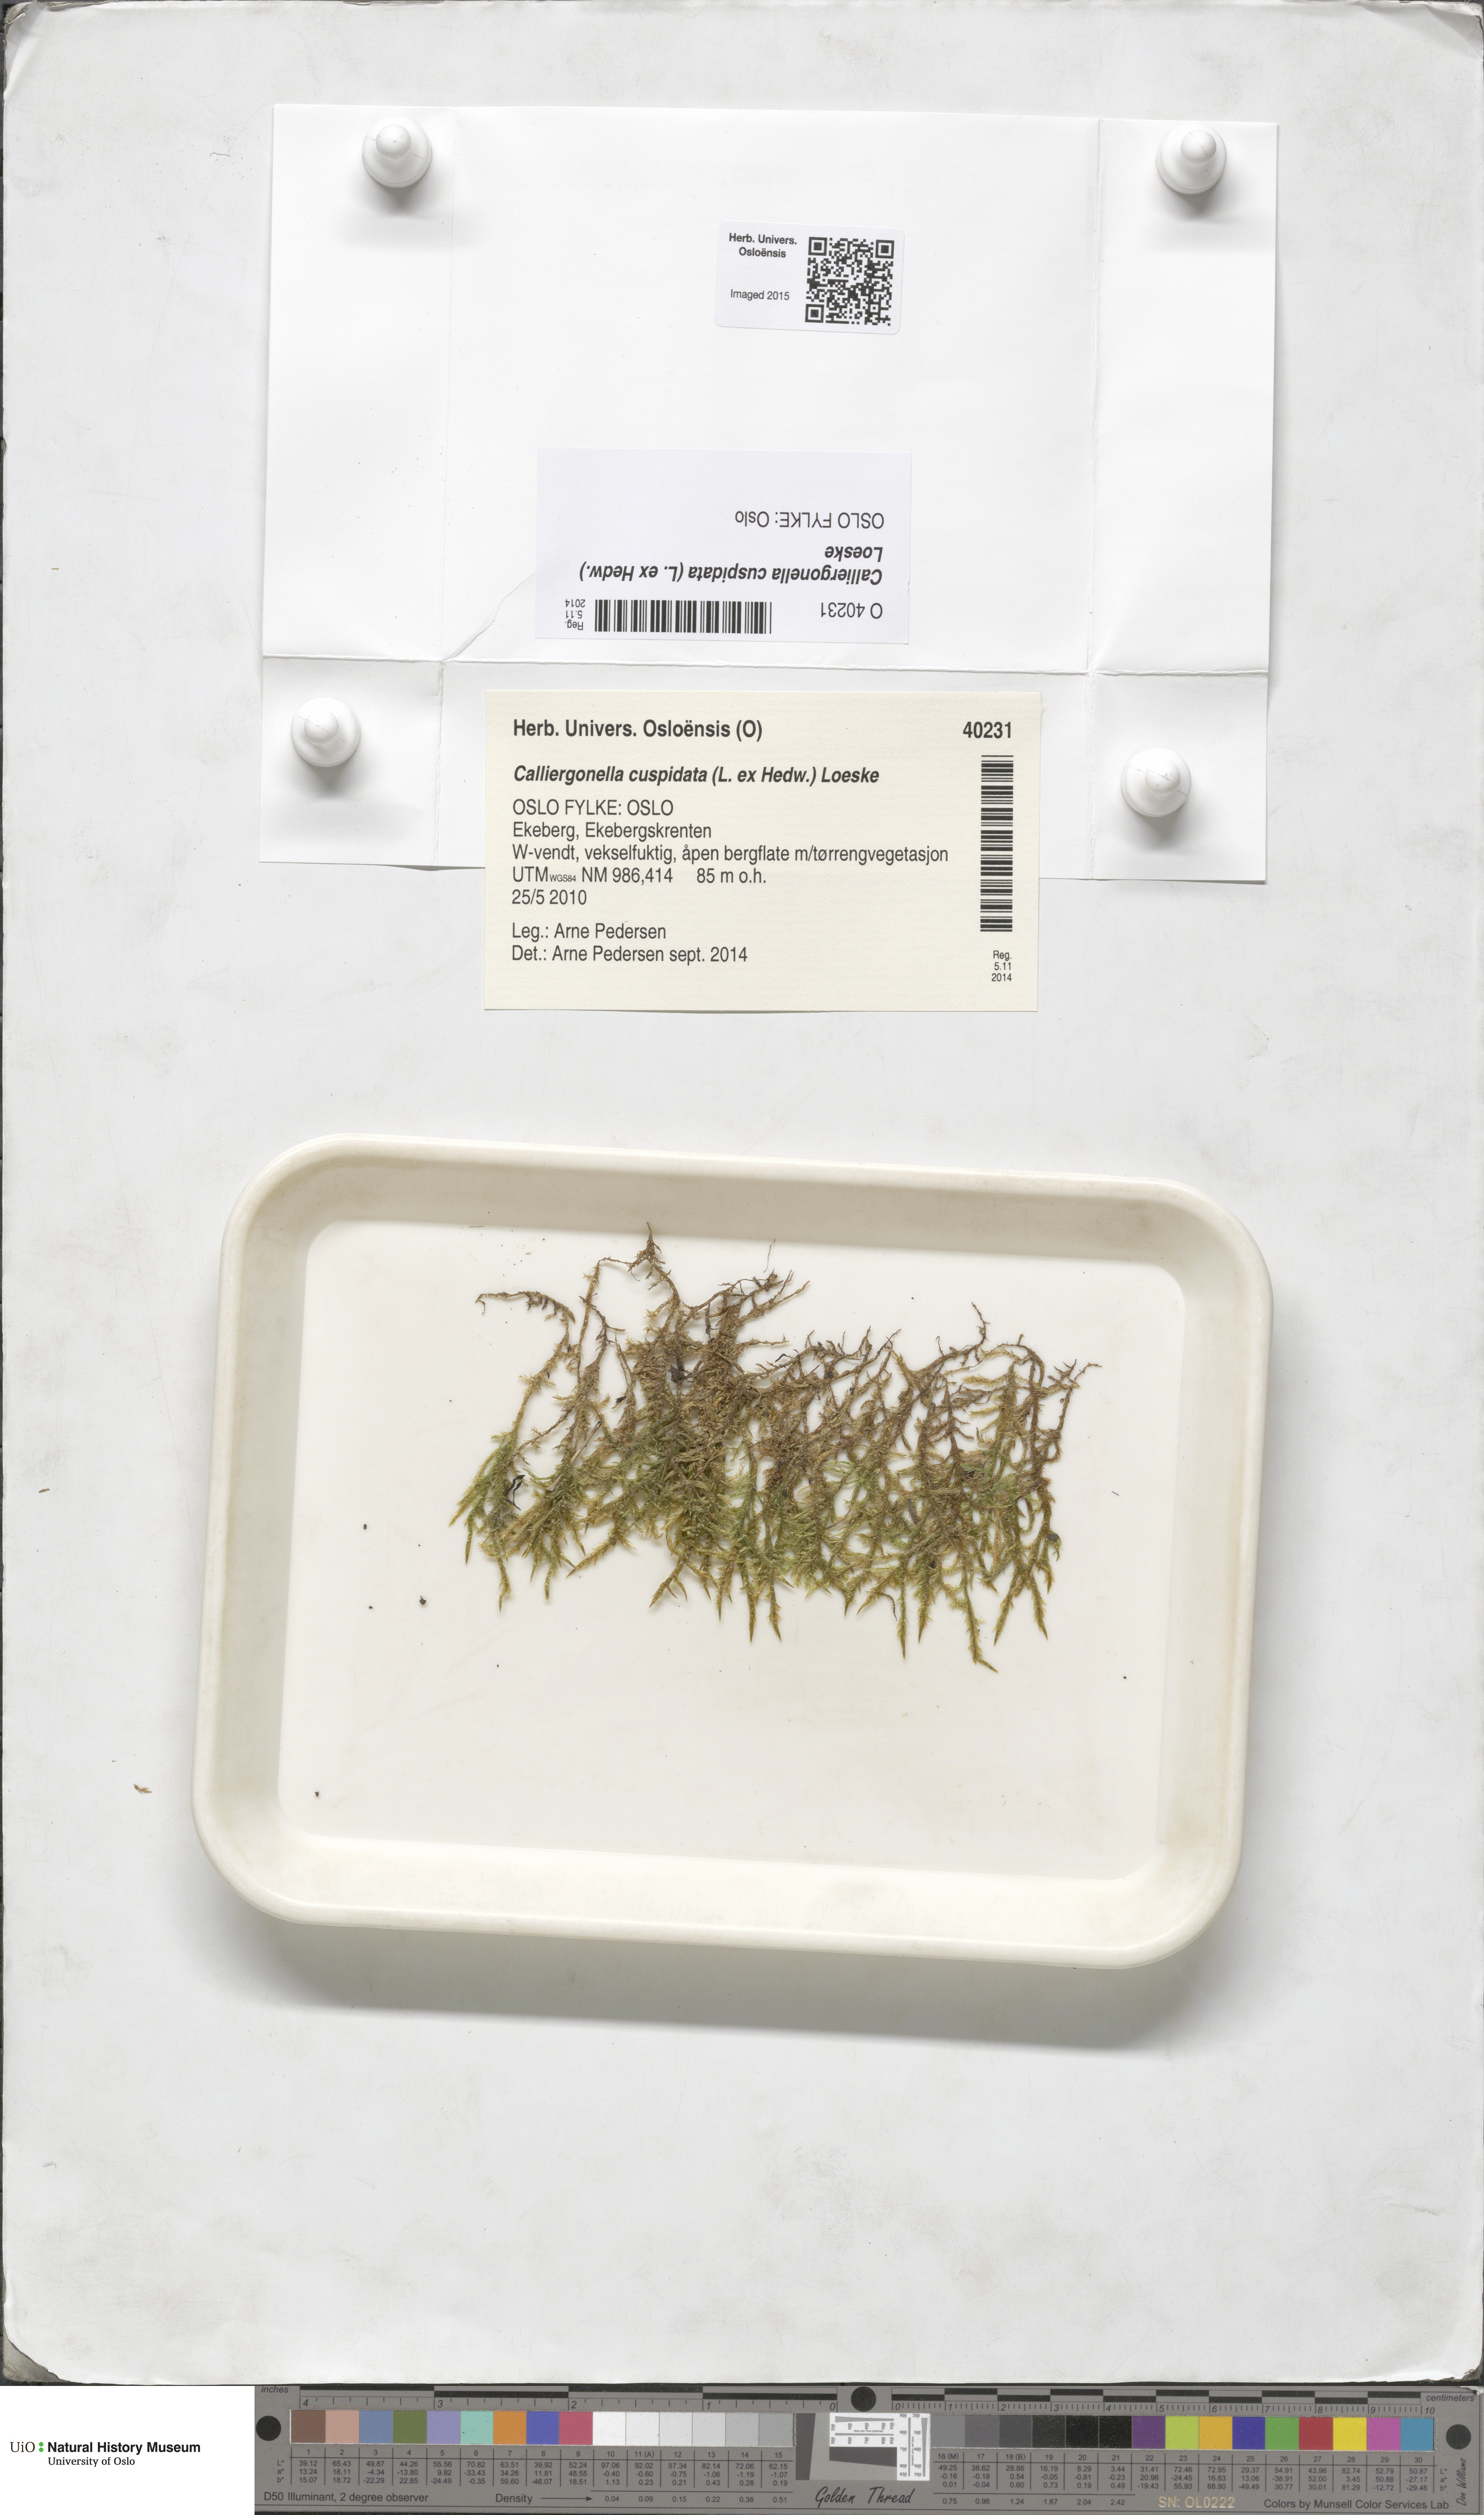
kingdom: Plantae
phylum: Bryophyta
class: Bryopsida
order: Hypnales
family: Pylaisiaceae
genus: Calliergonella
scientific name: Calliergonella cuspidata
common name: Common large wetland moss
